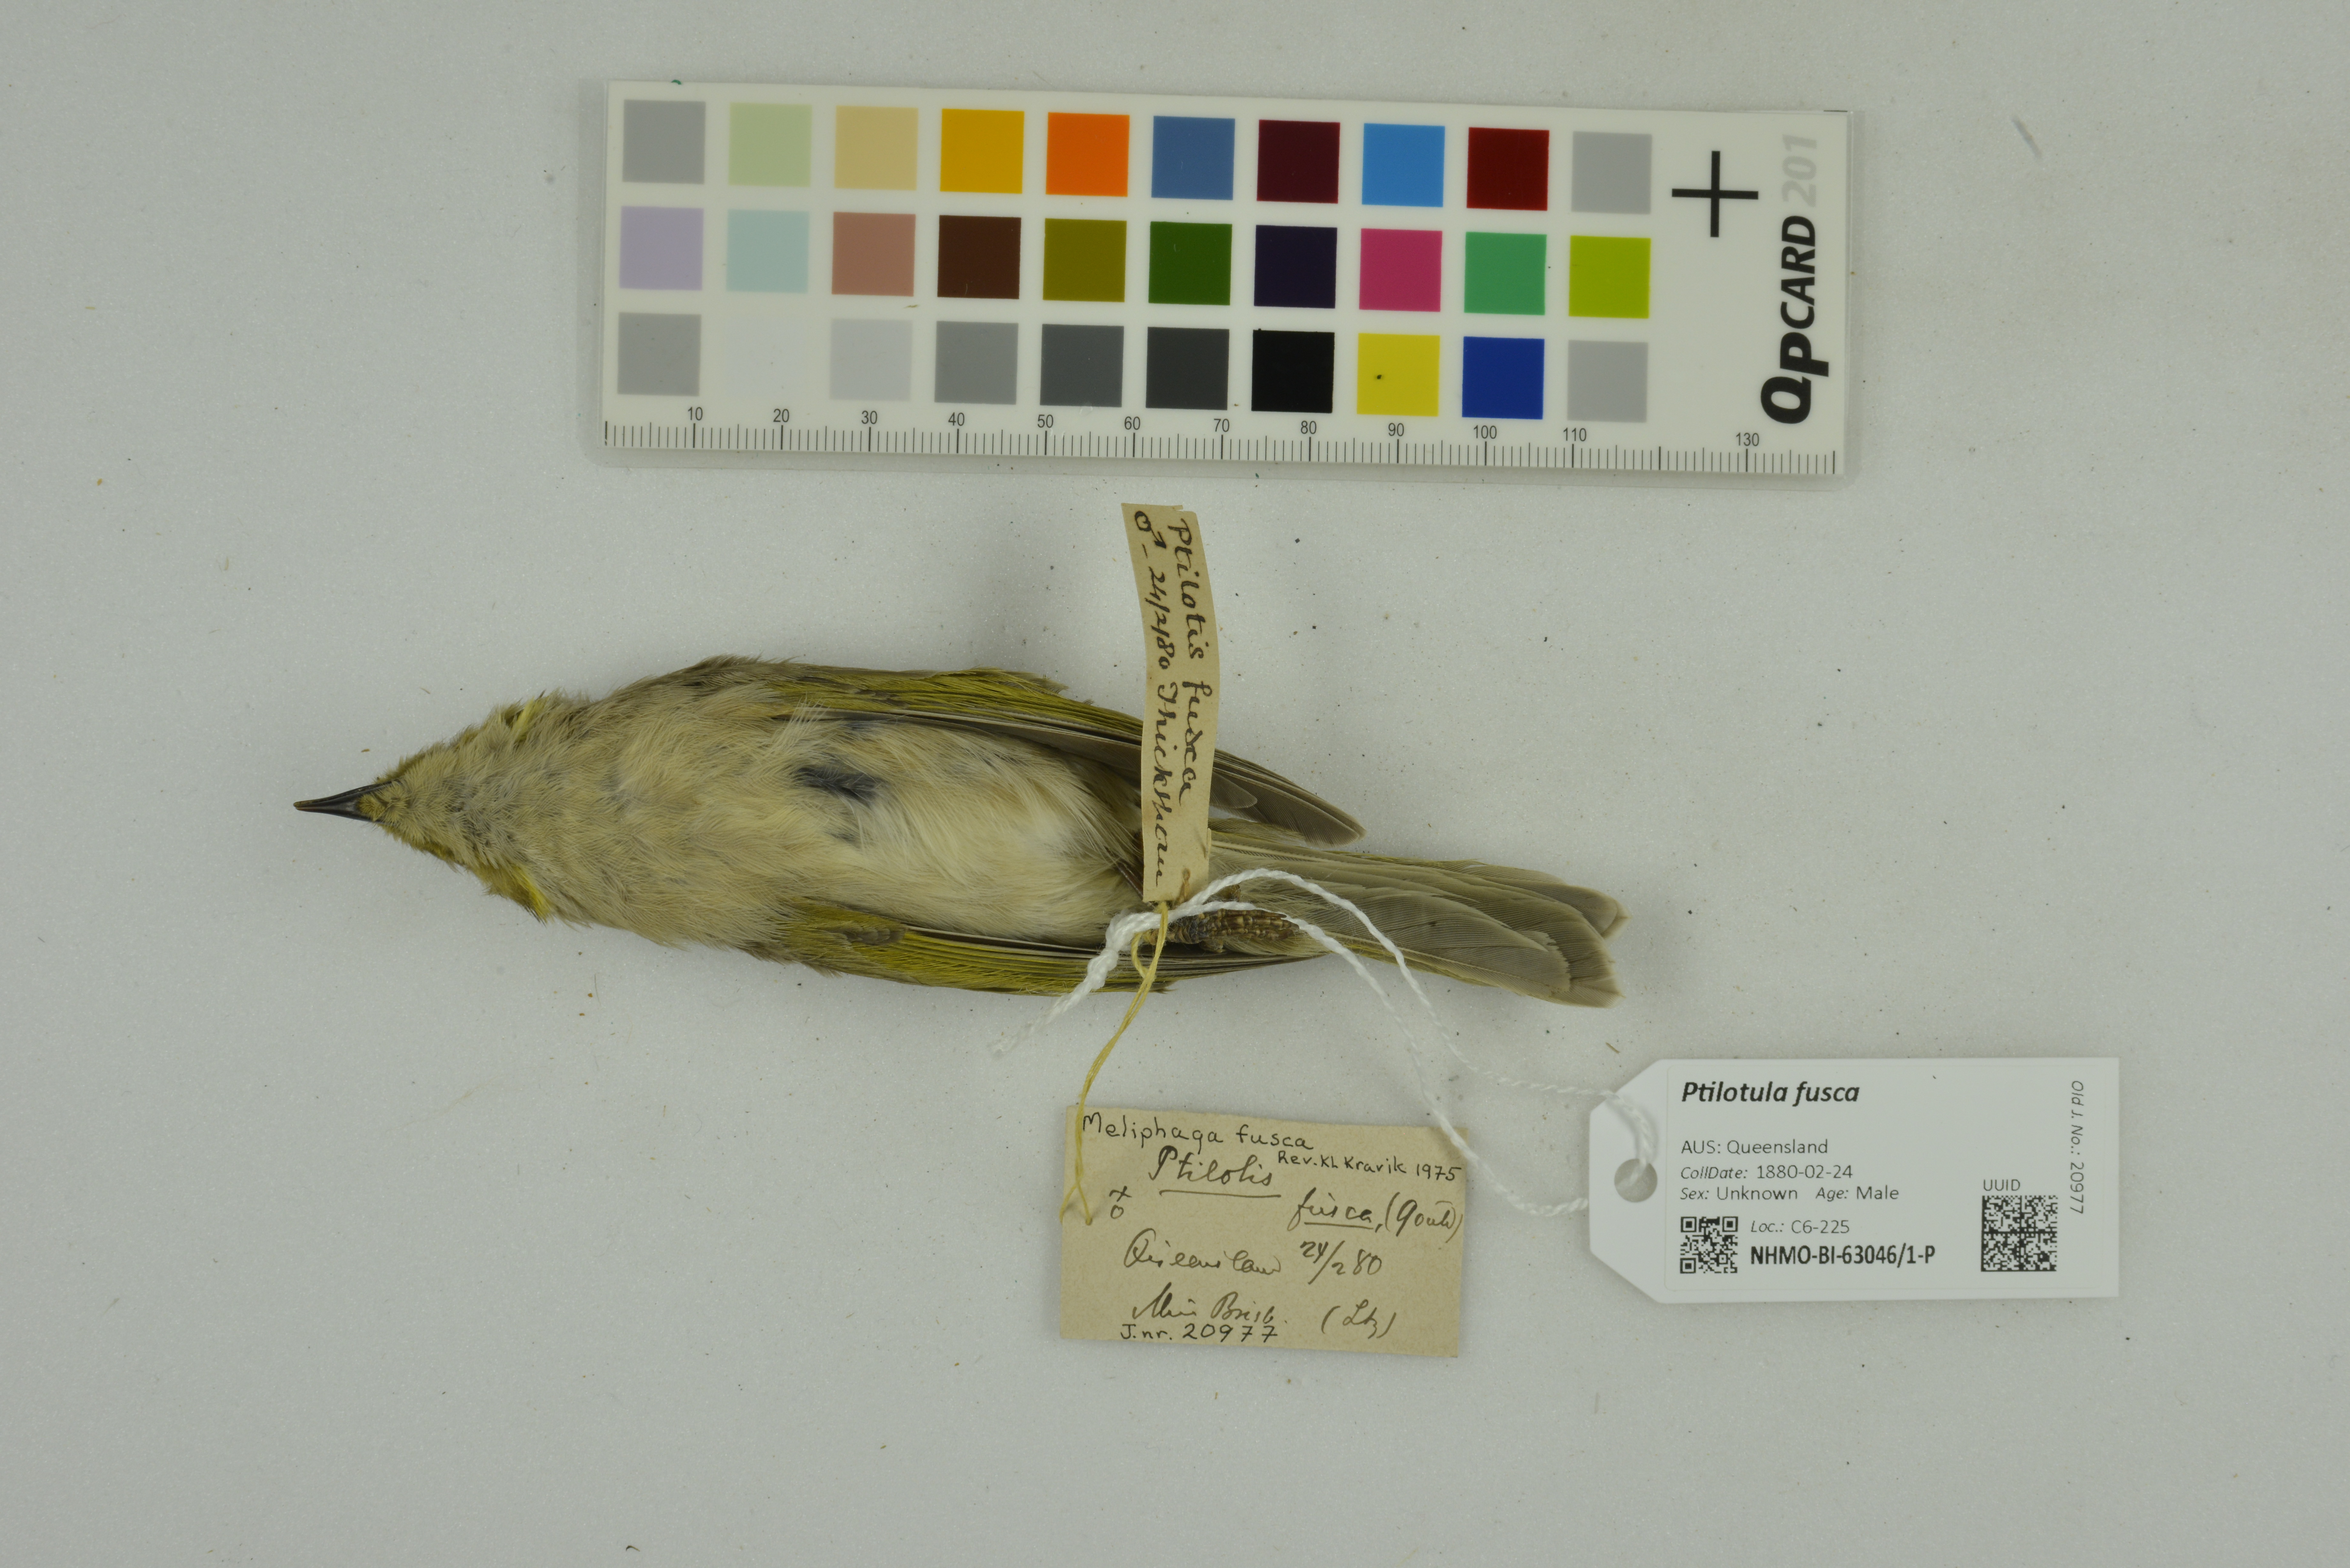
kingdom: Animalia
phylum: Chordata
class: Aves
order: Passeriformes
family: Meliphagidae
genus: Ptilotula
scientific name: Ptilotula fusca
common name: Fuscous honeyeater
